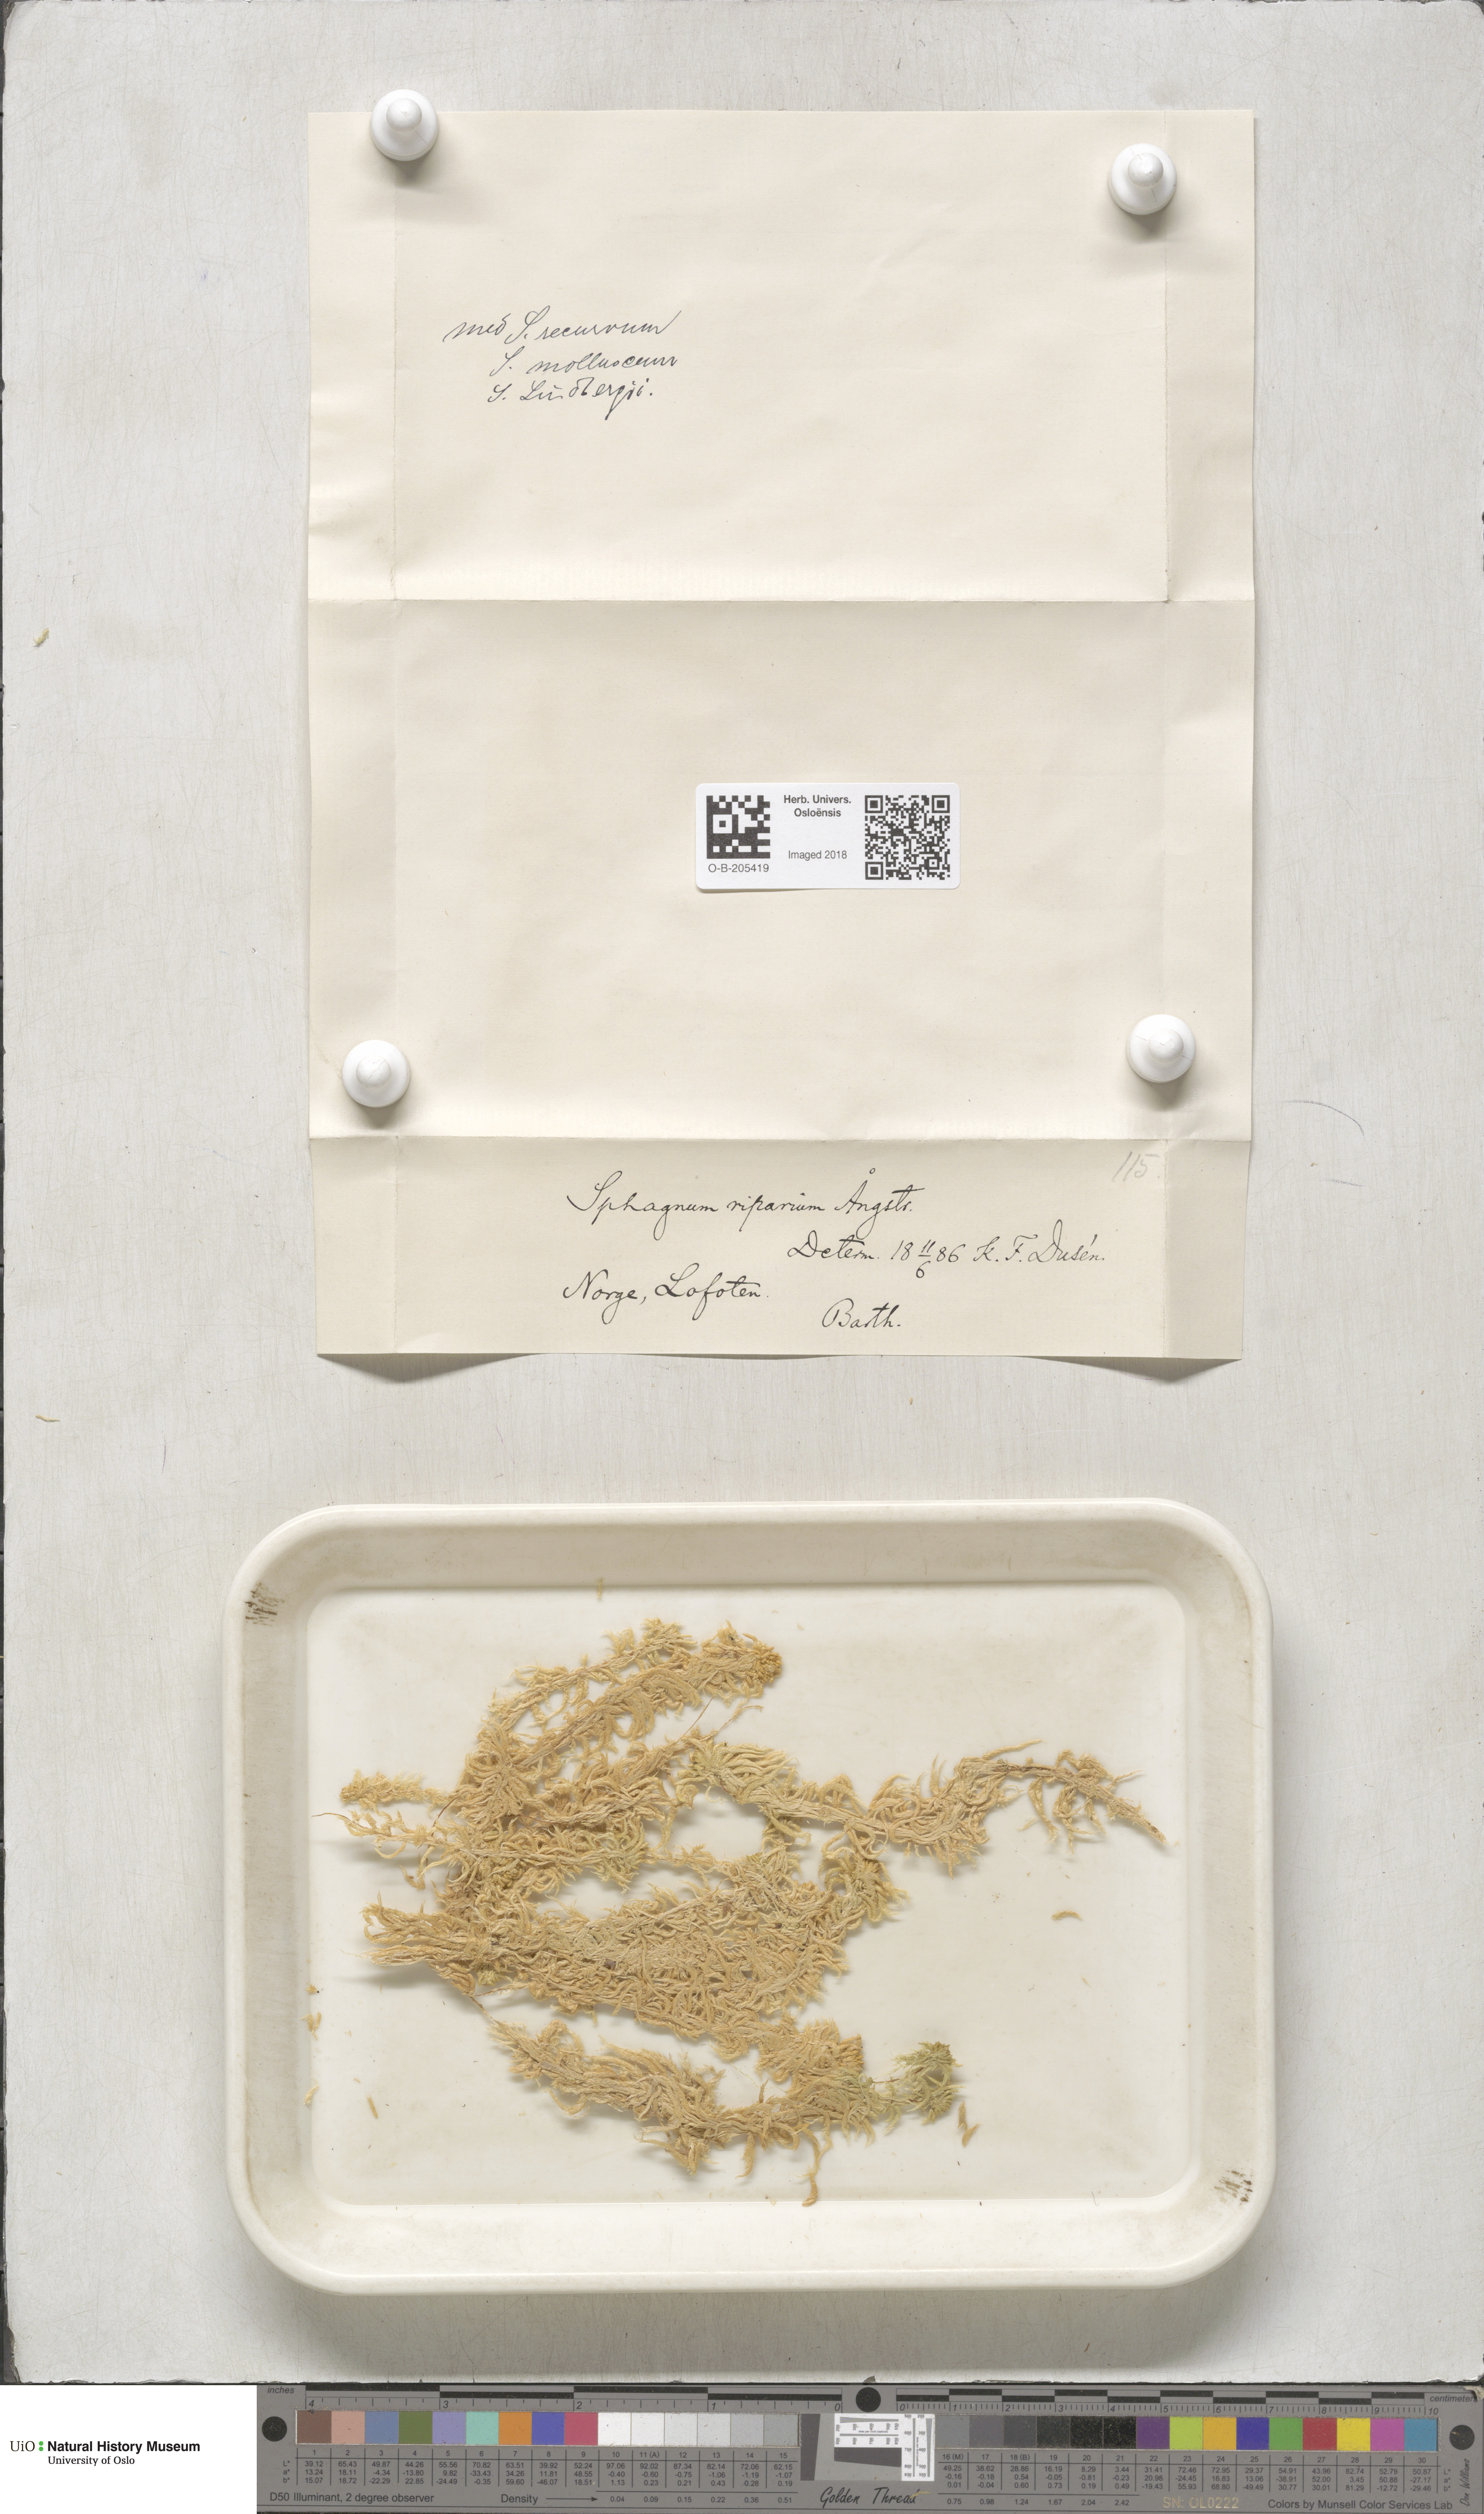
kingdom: Plantae
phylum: Bryophyta
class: Sphagnopsida
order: Sphagnales
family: Sphagnaceae
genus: Sphagnum
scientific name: Sphagnum riparium
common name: Streamside peat moss
